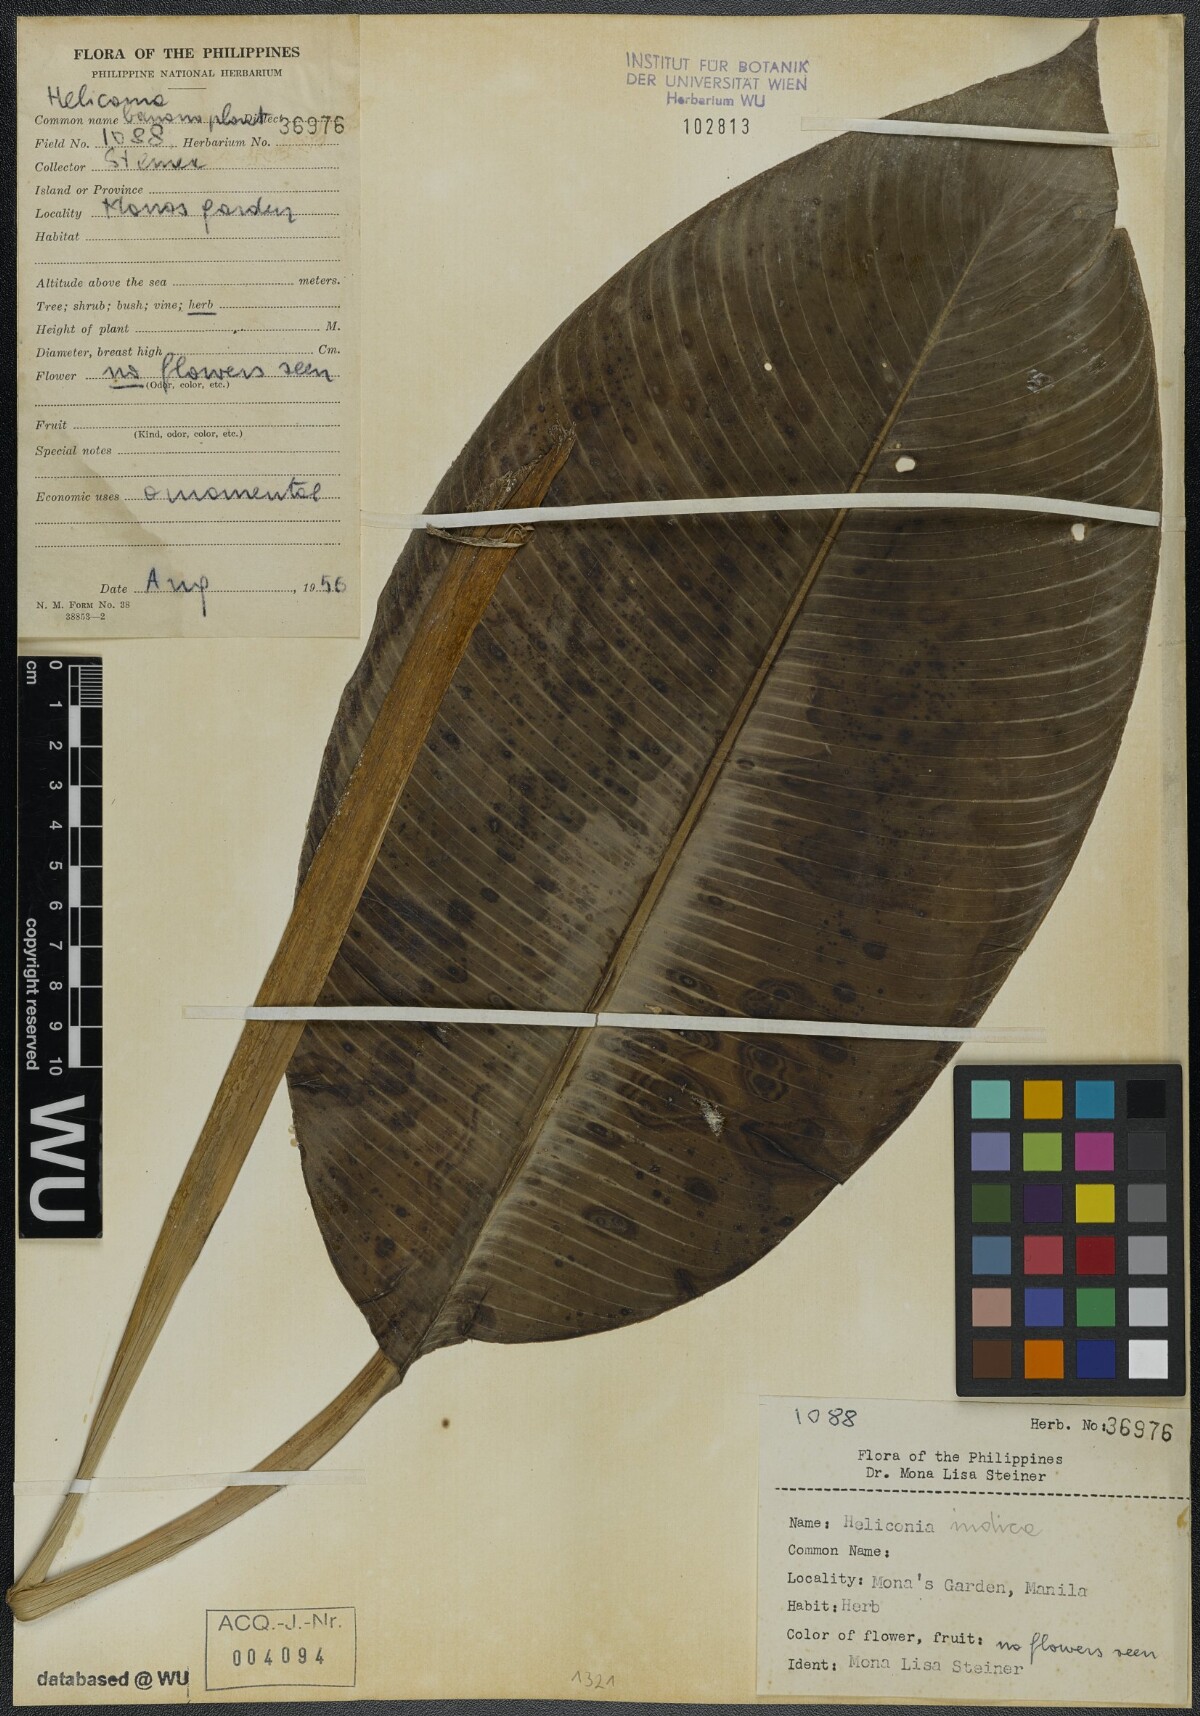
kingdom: Plantae
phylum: Tracheophyta
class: Liliopsida
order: Zingiberales
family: Heliconiaceae
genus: Heliconia
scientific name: Heliconia indica
